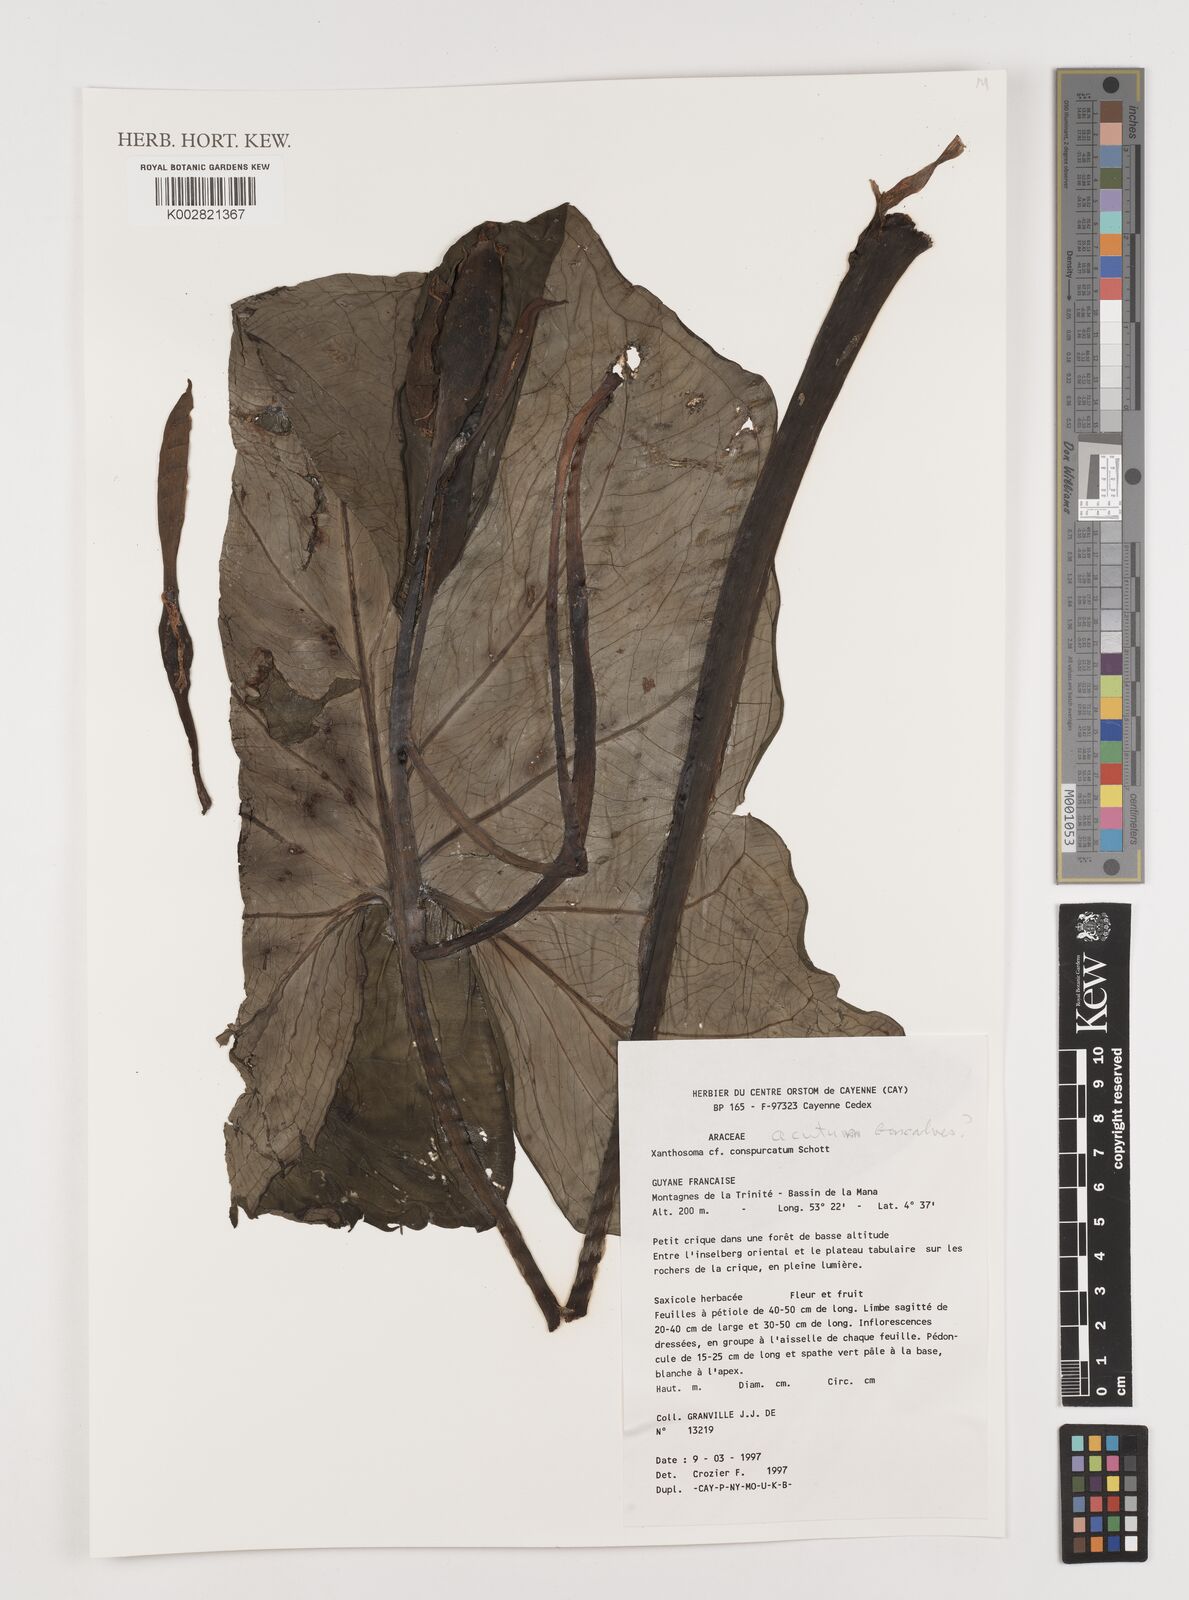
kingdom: Plantae
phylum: Tracheophyta
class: Liliopsida
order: Alismatales
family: Araceae
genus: Xanthosoma
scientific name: Xanthosoma acutum
